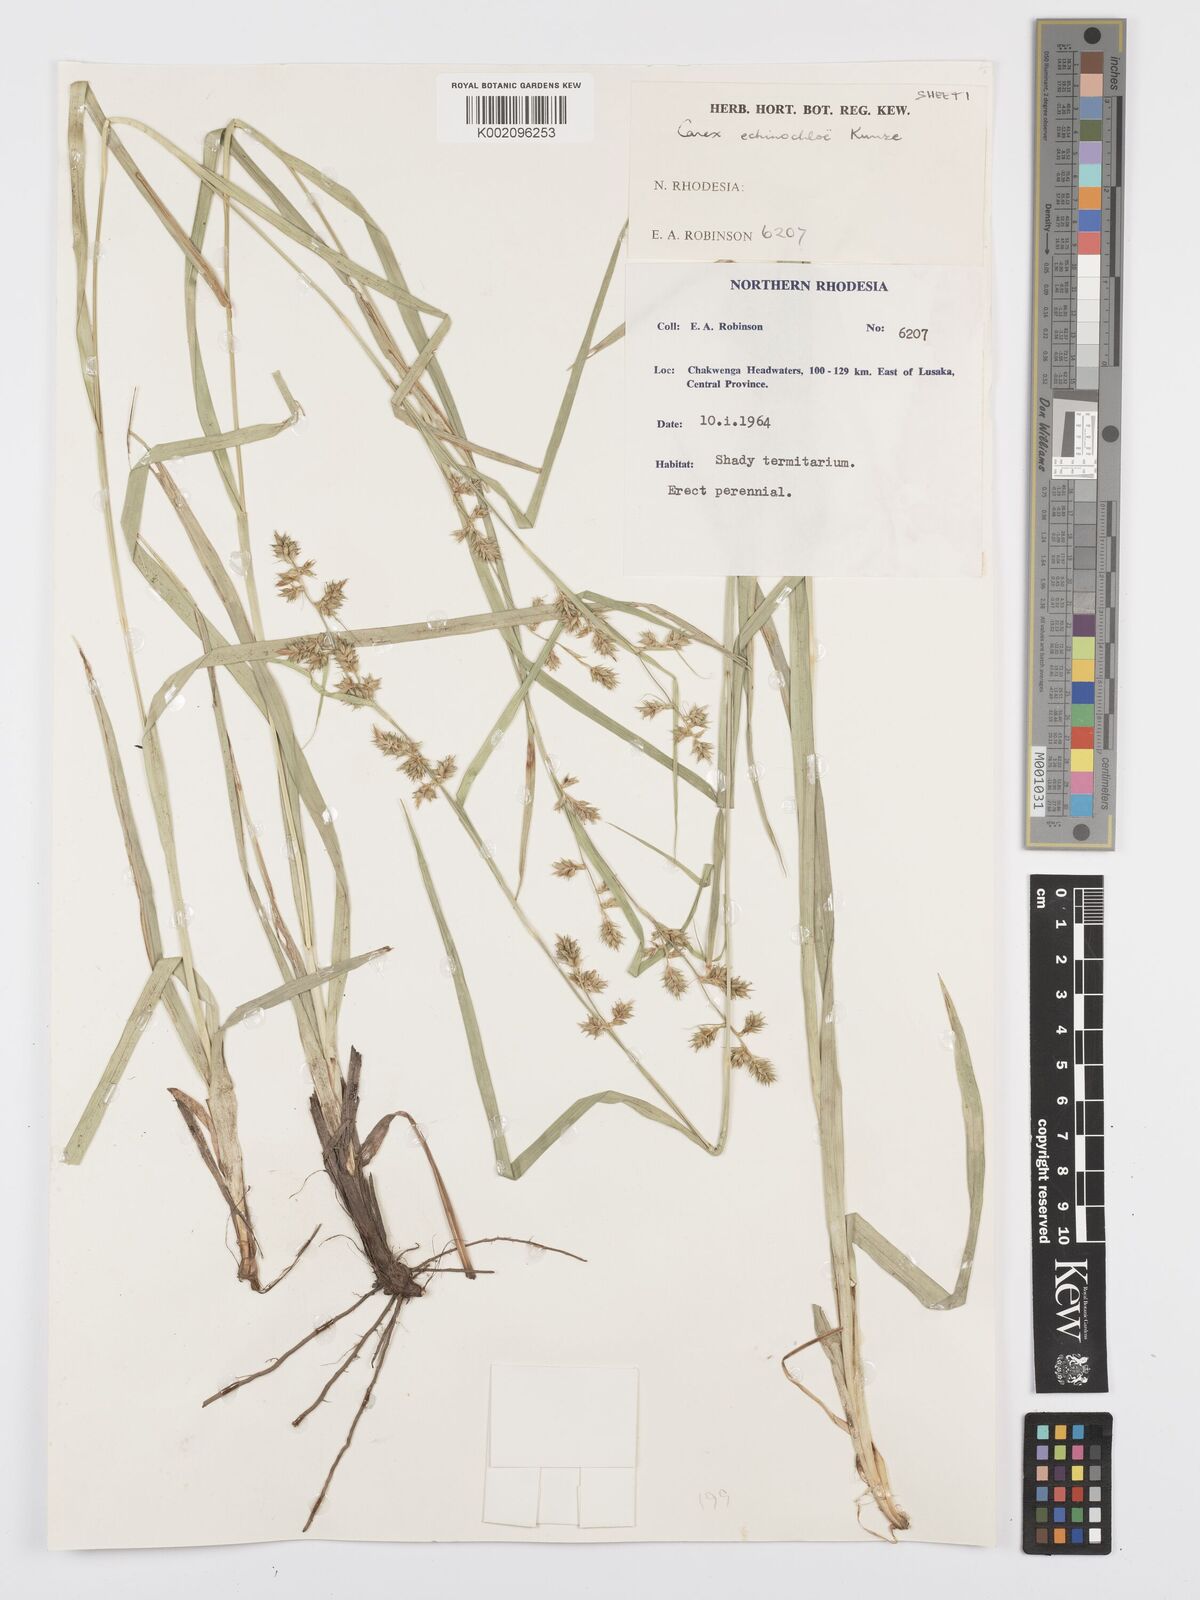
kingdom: Plantae
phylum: Tracheophyta
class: Liliopsida
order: Poales
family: Cyperaceae
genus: Carex
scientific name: Carex echinochloe
